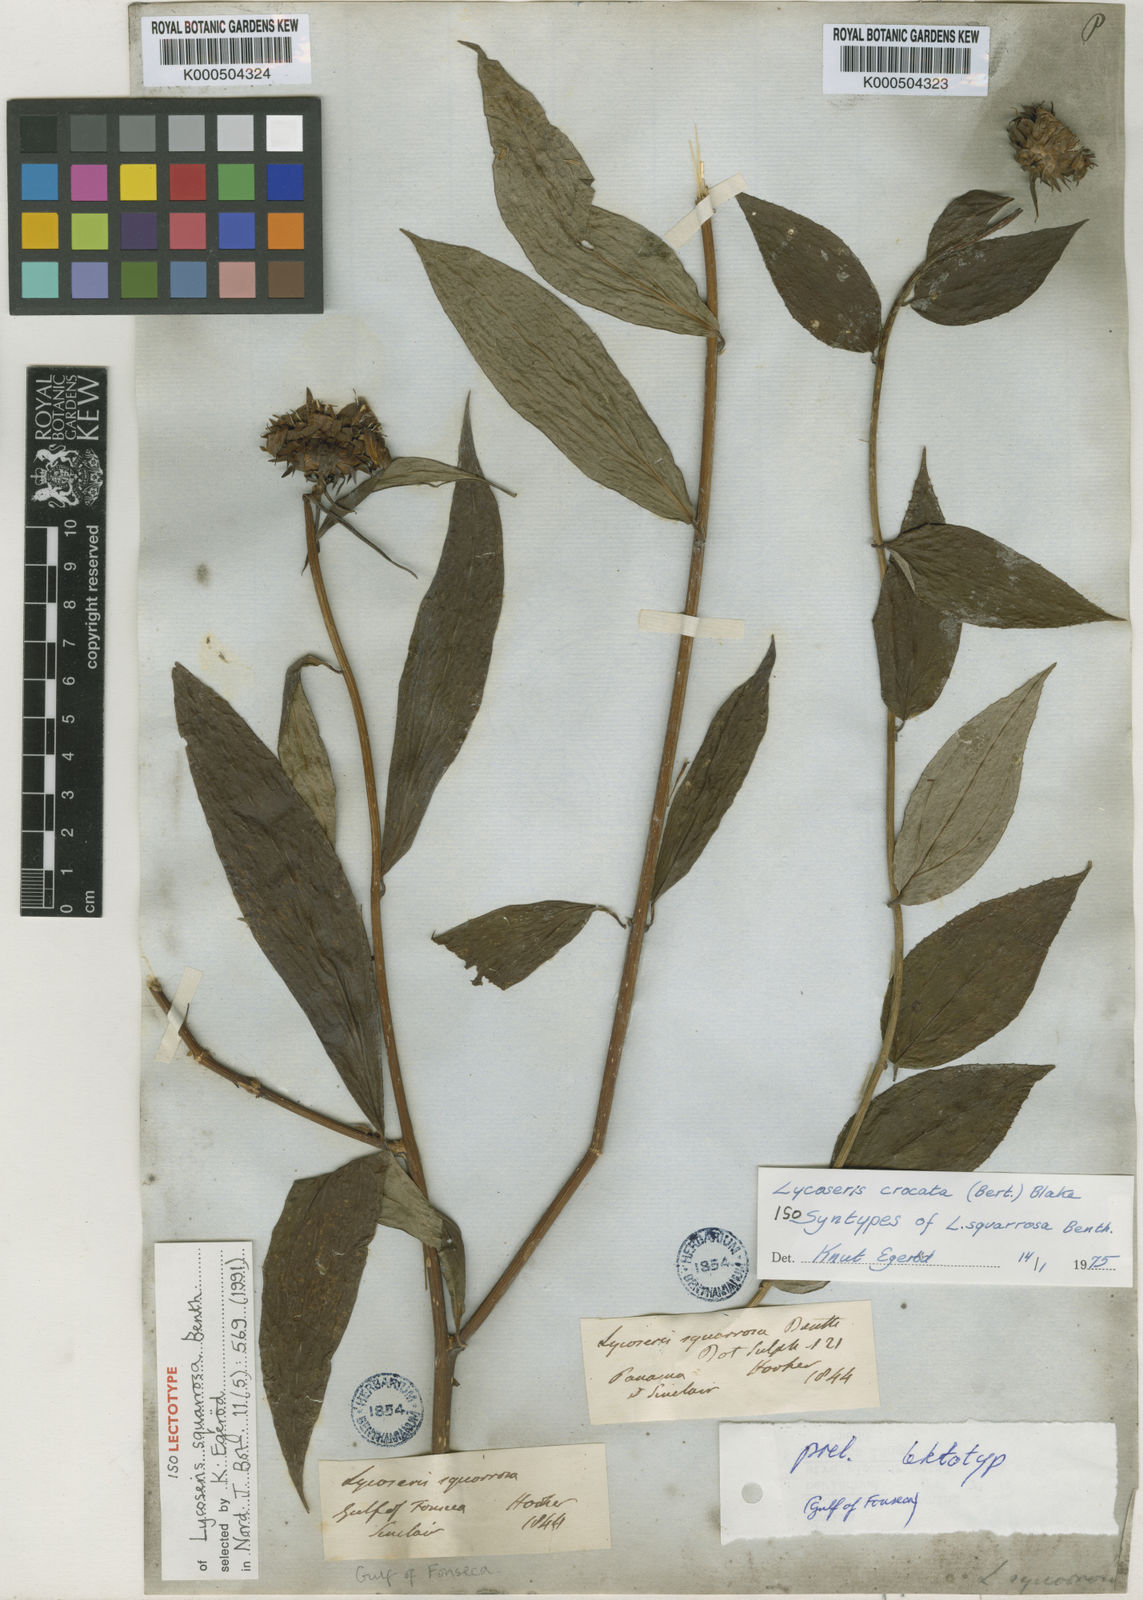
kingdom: Plantae
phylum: Tracheophyta
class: Magnoliopsida
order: Asterales
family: Asteraceae
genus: Lycoseris
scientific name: Lycoseris crocata
